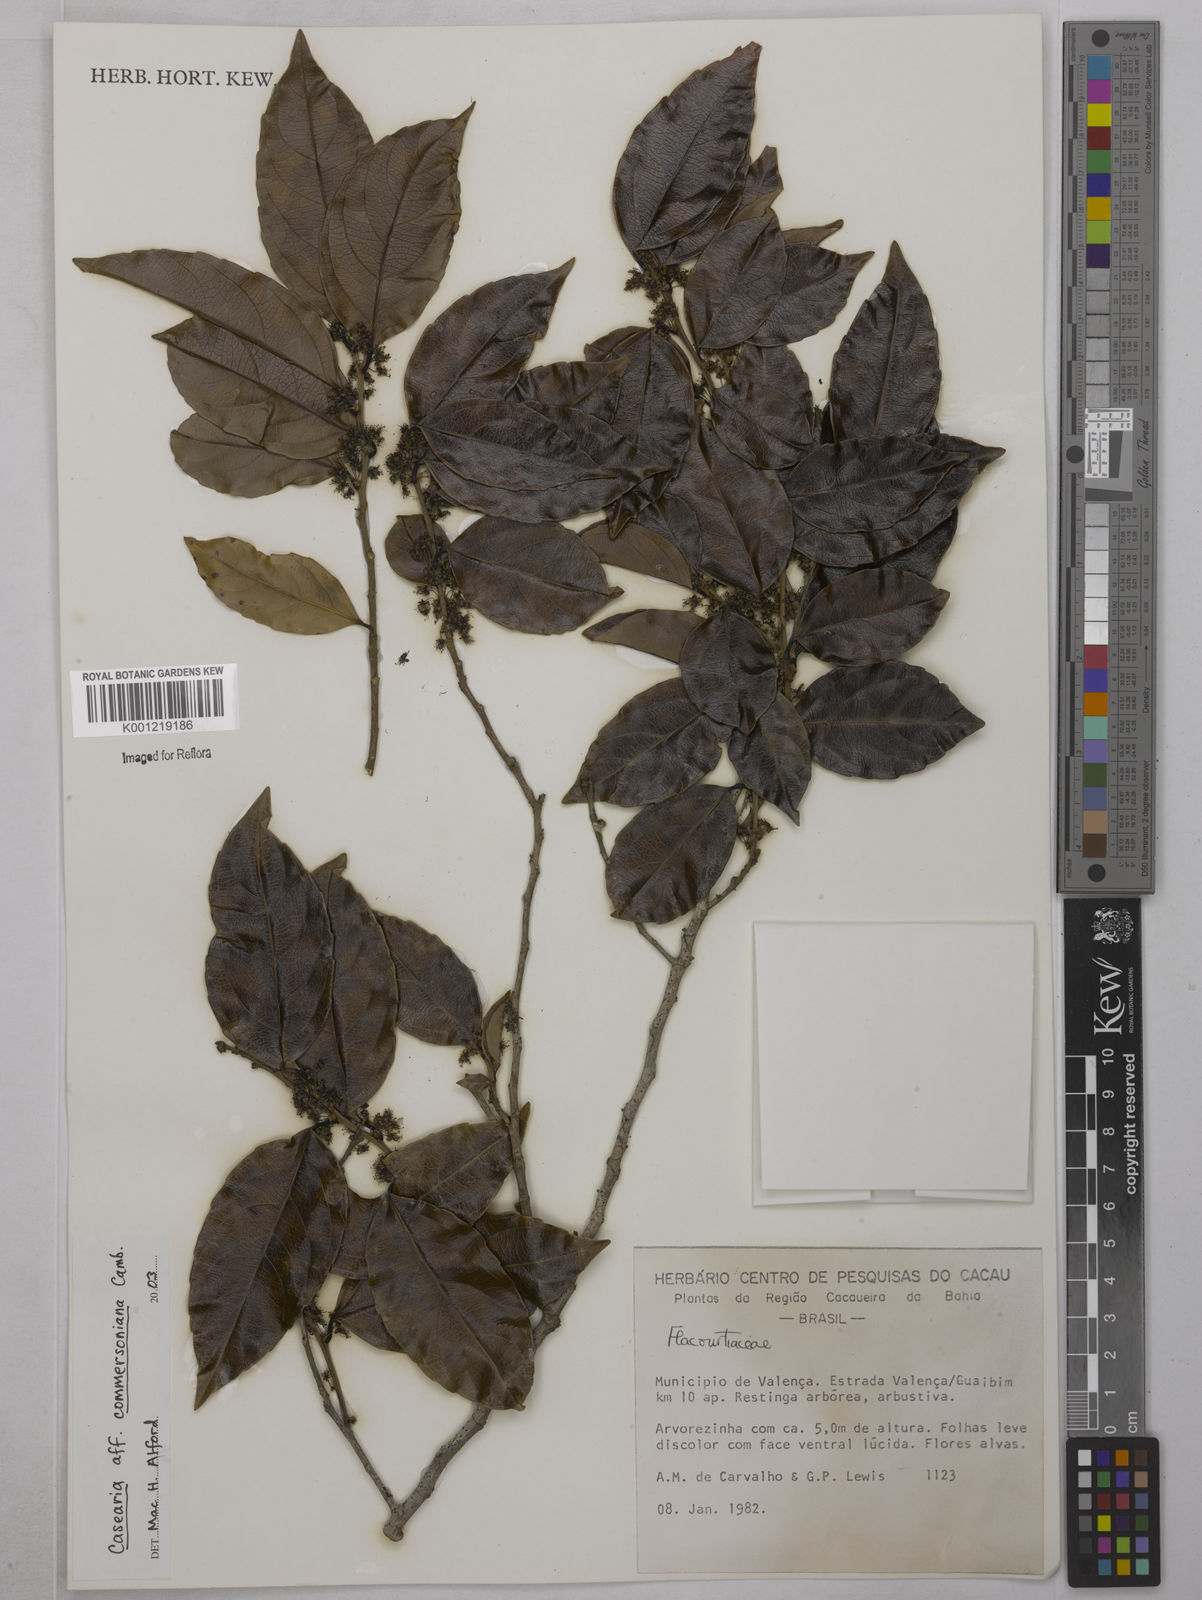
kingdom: Plantae
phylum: Tracheophyta
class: Magnoliopsida
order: Malpighiales
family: Salicaceae
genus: Piparea
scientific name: Piparea dentata
